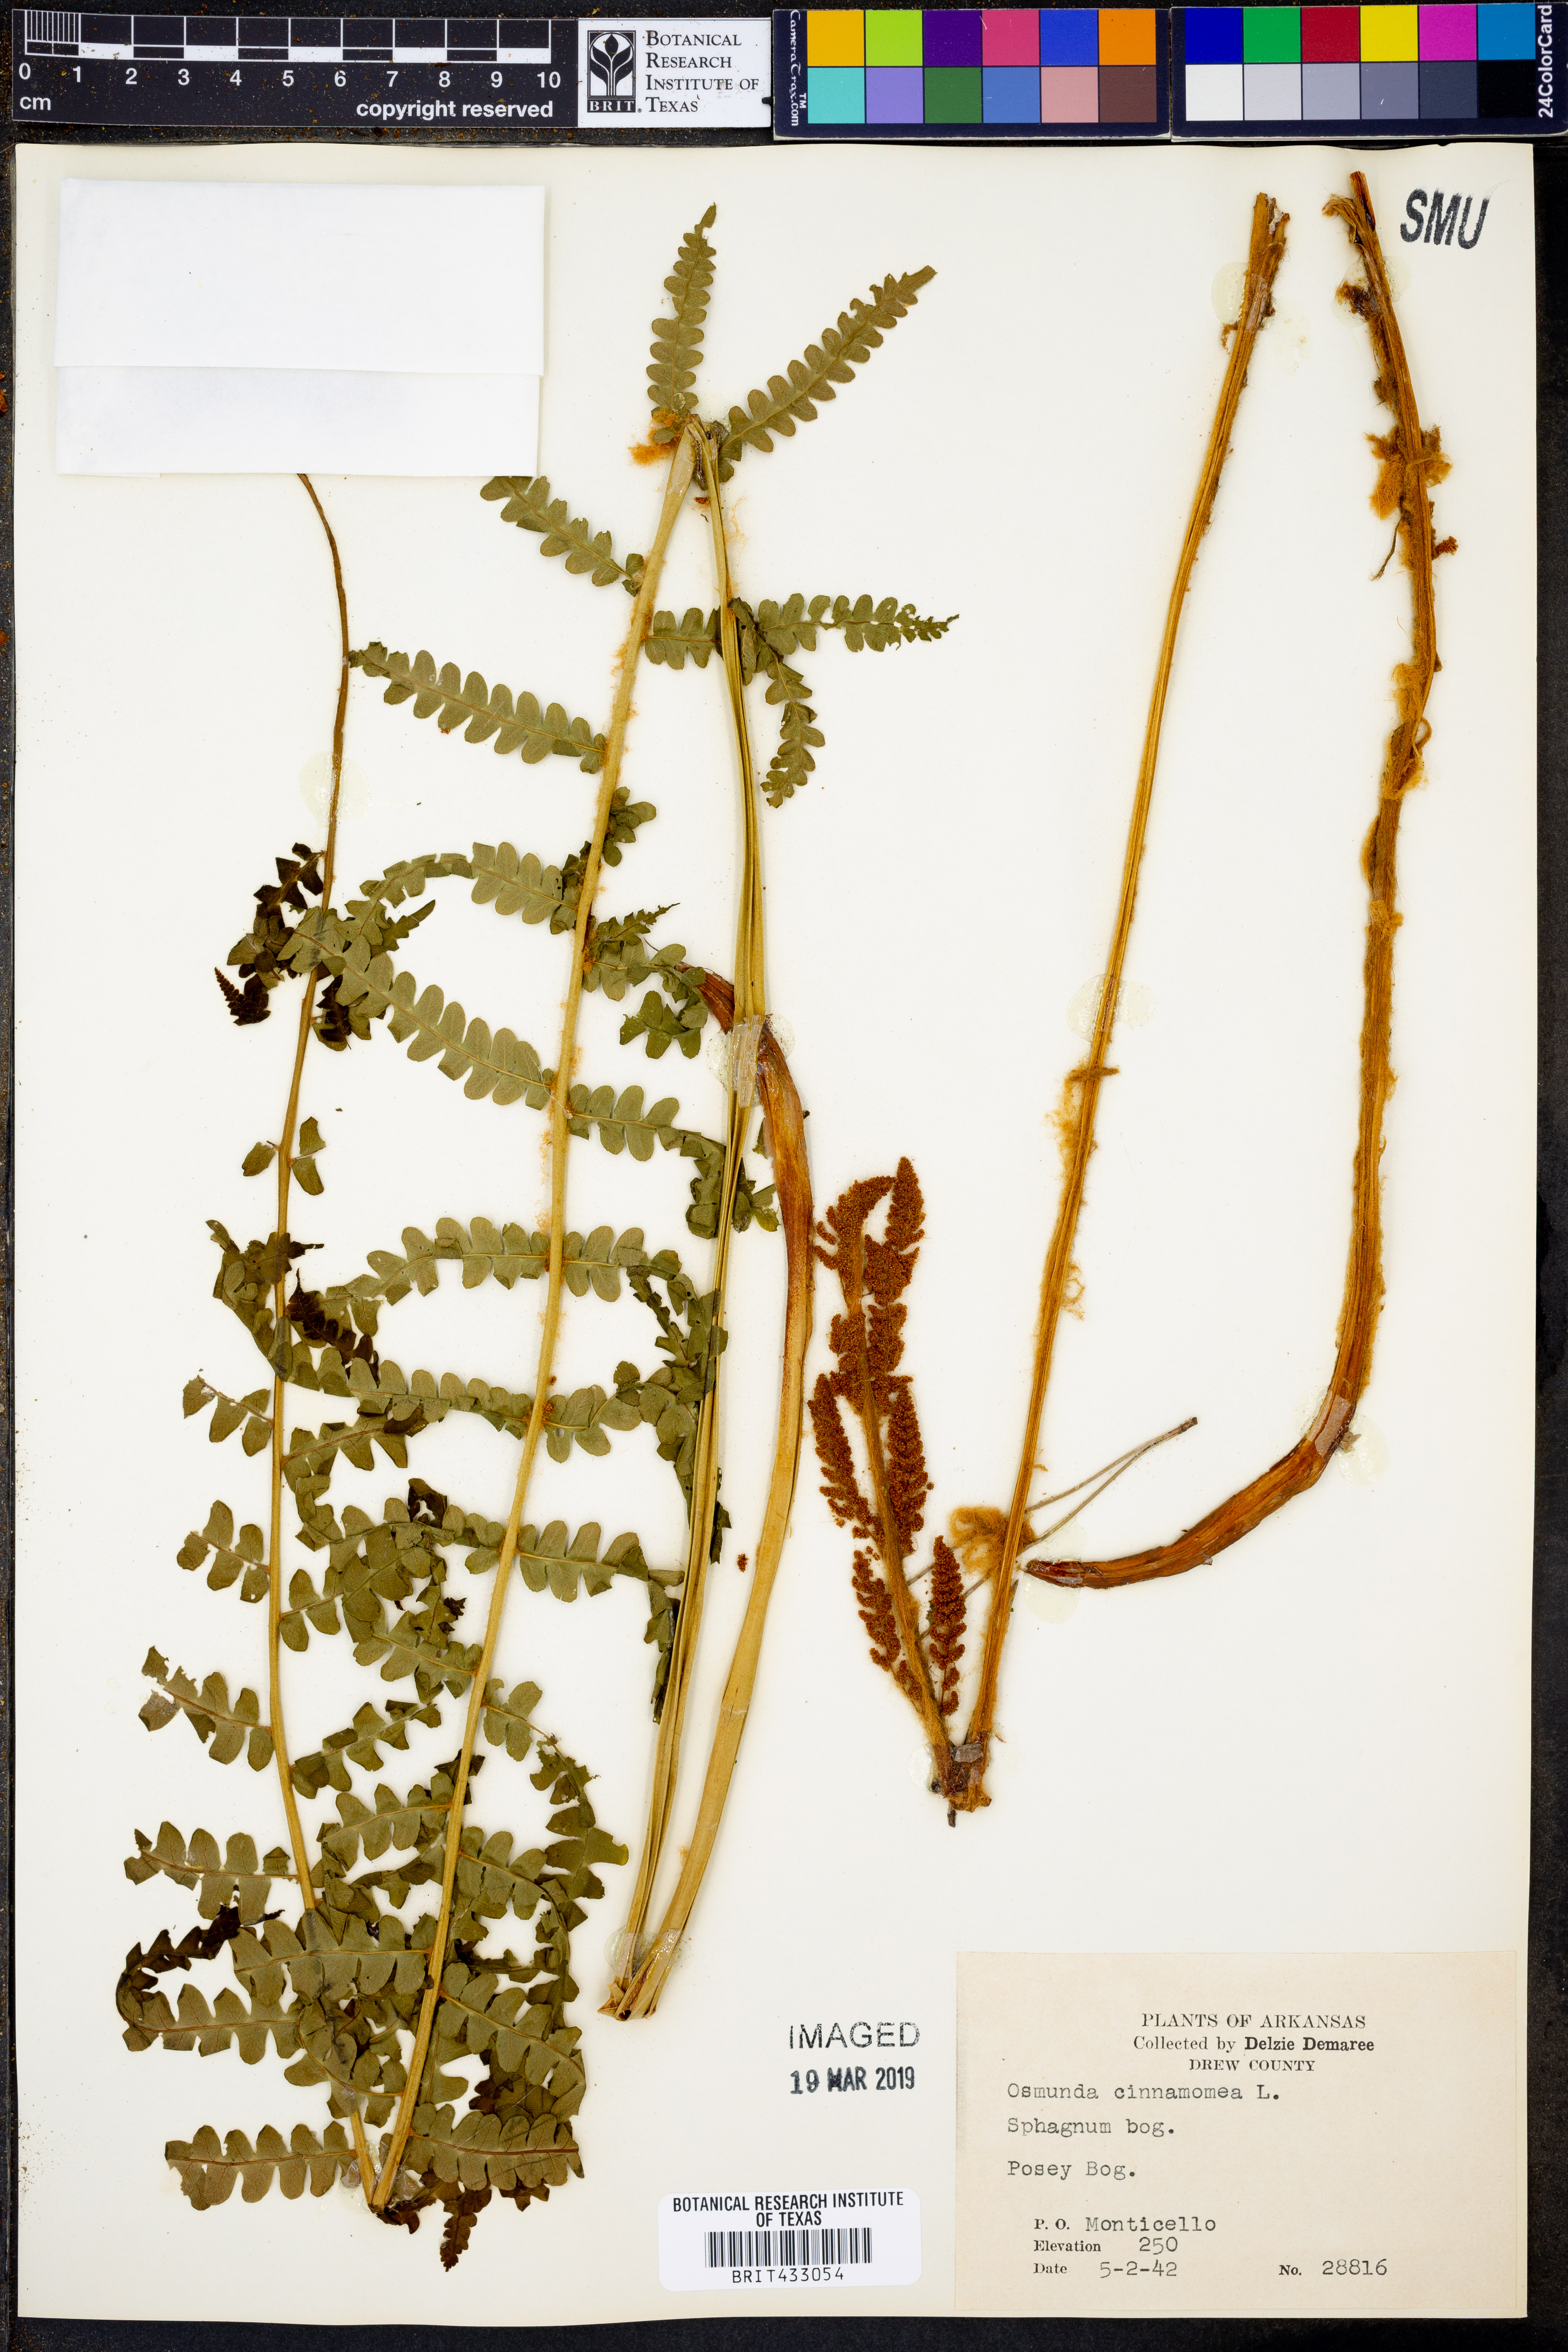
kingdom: Plantae
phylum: Tracheophyta
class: Polypodiopsida
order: Osmundales
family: Osmundaceae
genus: Osmundastrum
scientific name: Osmundastrum cinnamomeum
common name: Cinnamon fern
